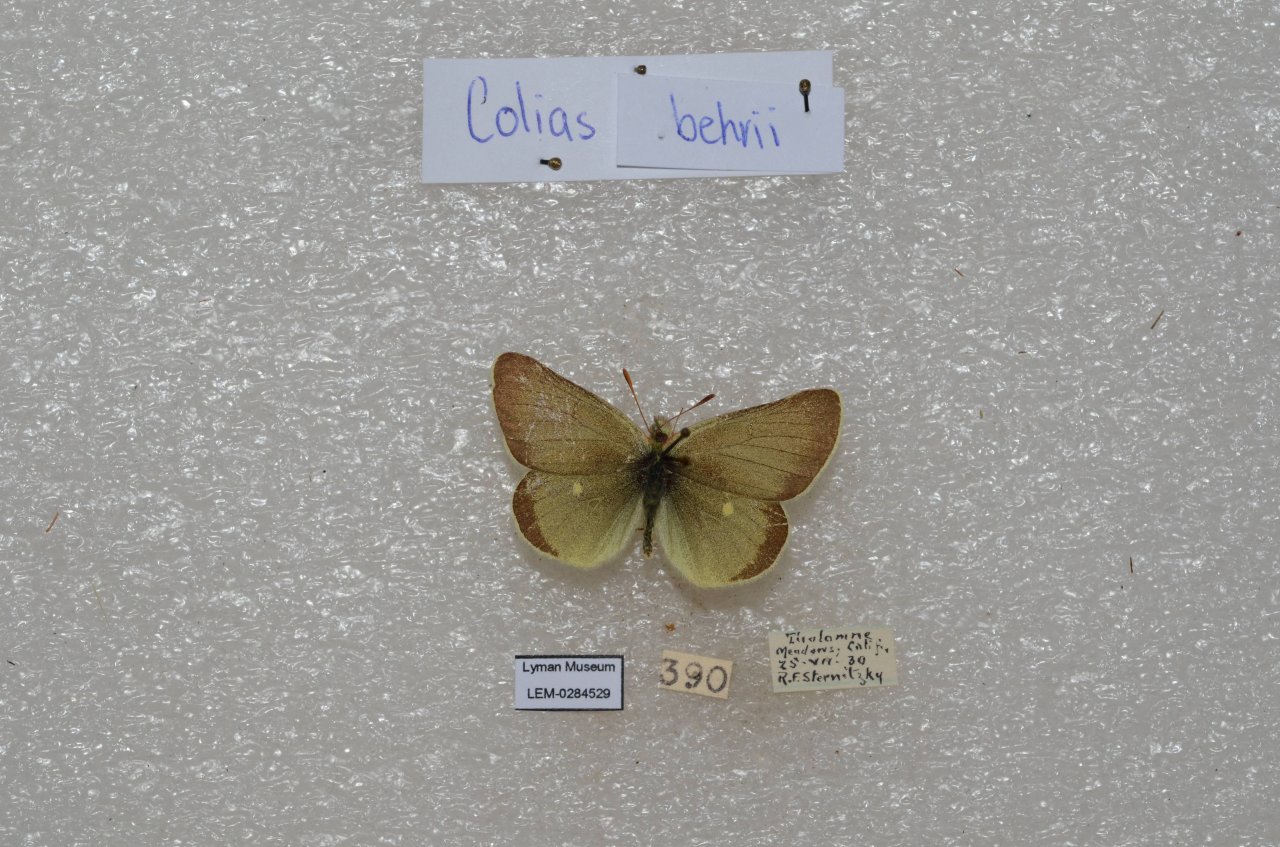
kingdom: Animalia
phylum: Arthropoda
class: Insecta
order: Lepidoptera
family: Pieridae
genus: Colias
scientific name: Colias behrii
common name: Sierra Sulphur
